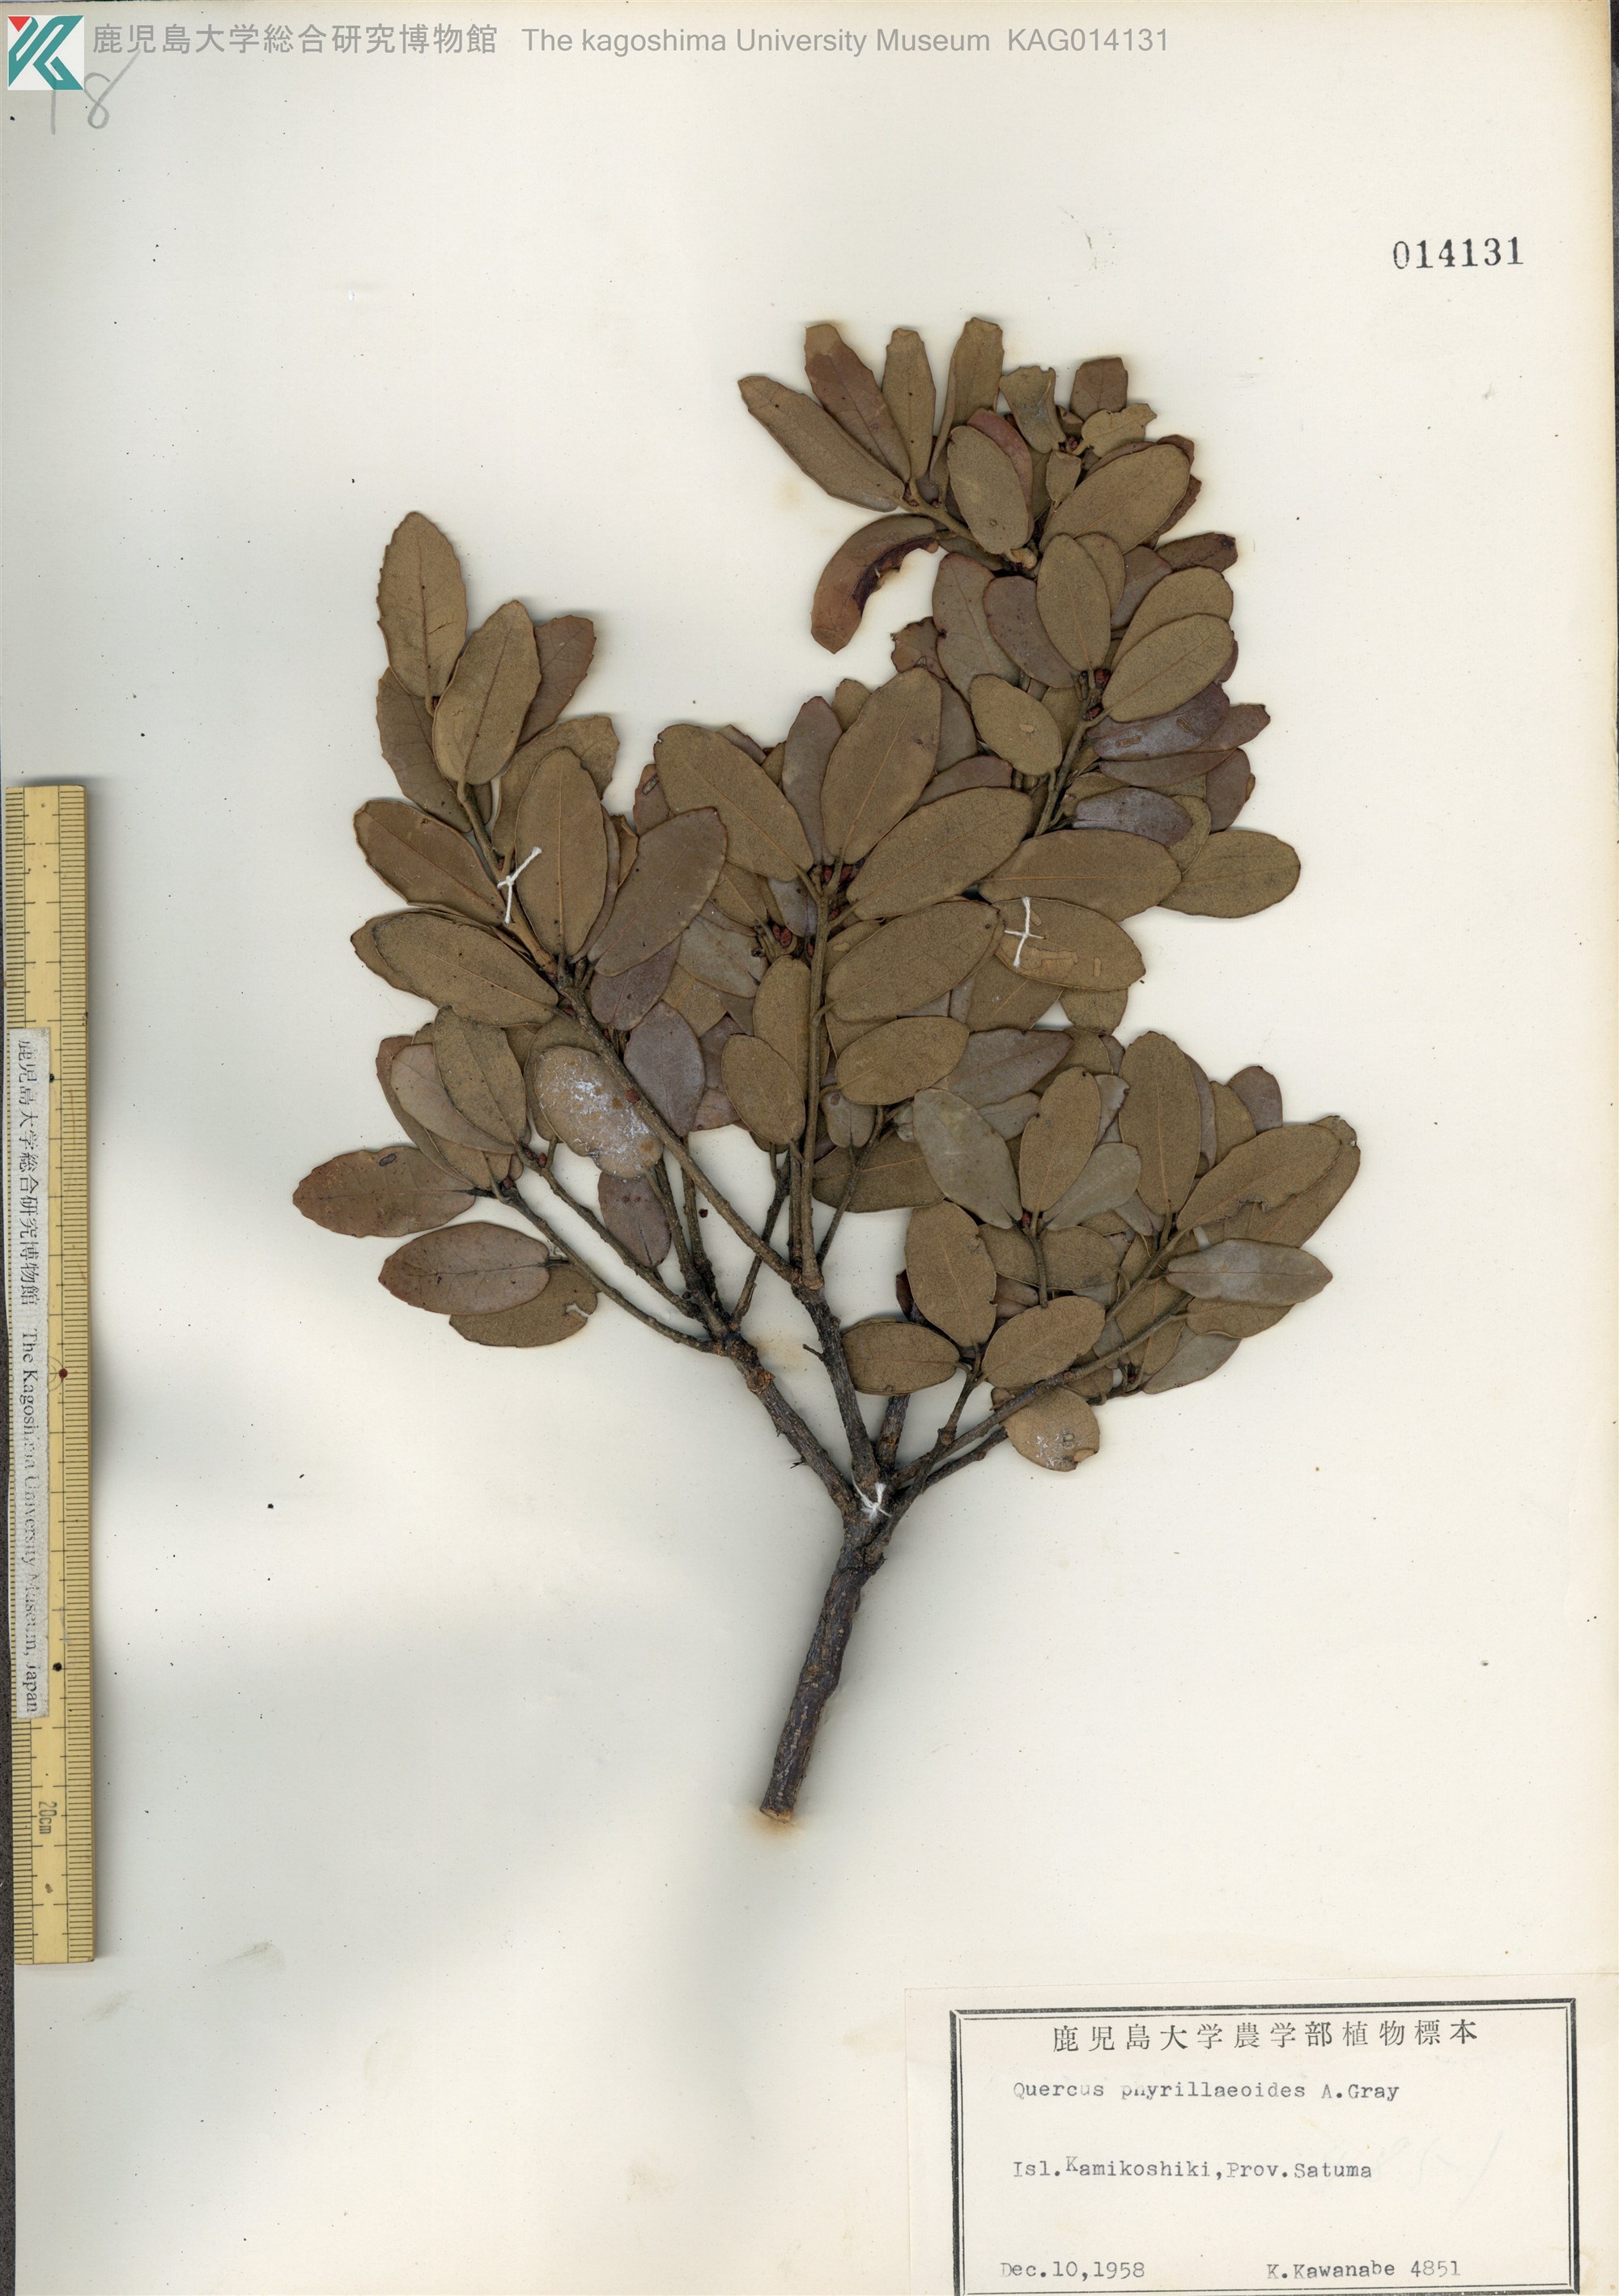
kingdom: Plantae
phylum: Tracheophyta
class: Magnoliopsida
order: Fagales
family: Fagaceae
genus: Quercus
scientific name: Quercus phillyreoides
